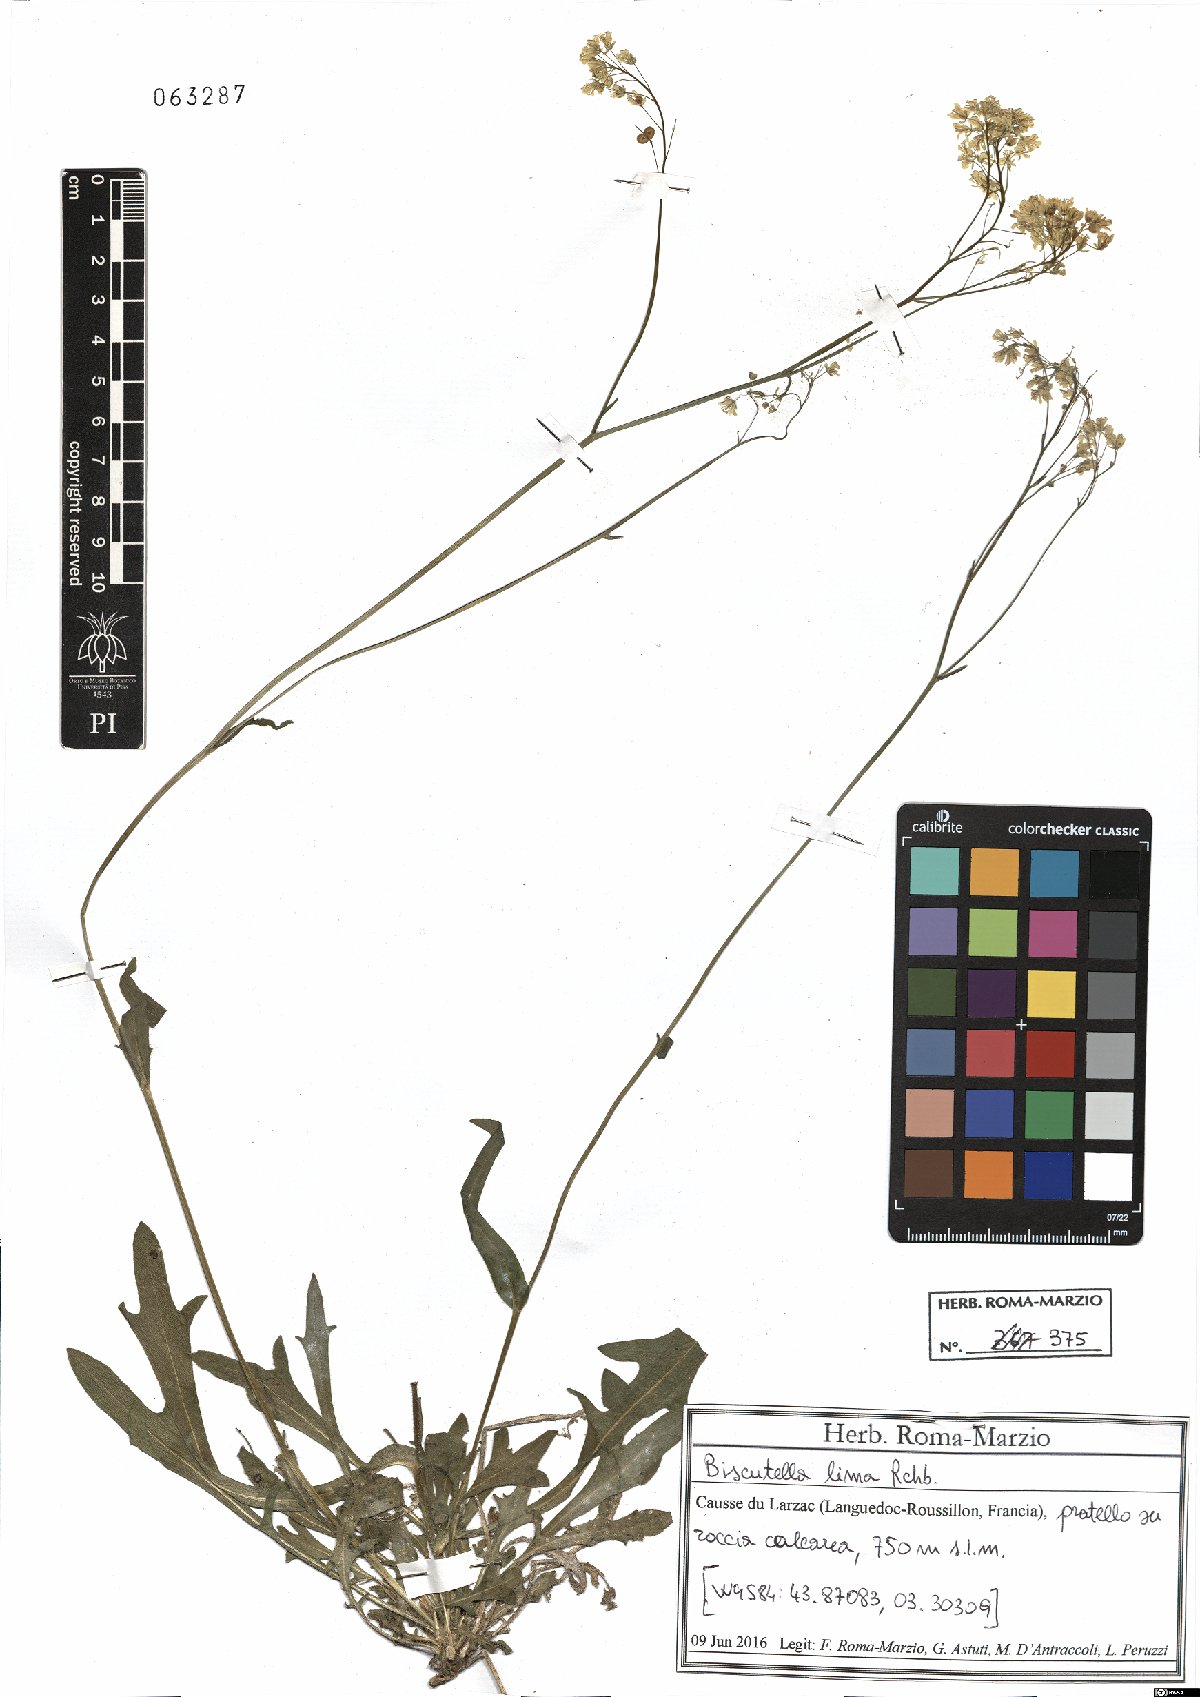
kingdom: Plantae
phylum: Tracheophyta
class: Magnoliopsida
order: Brassicales
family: Brassicaceae
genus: Biscutella
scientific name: Biscutella coronopifolia
